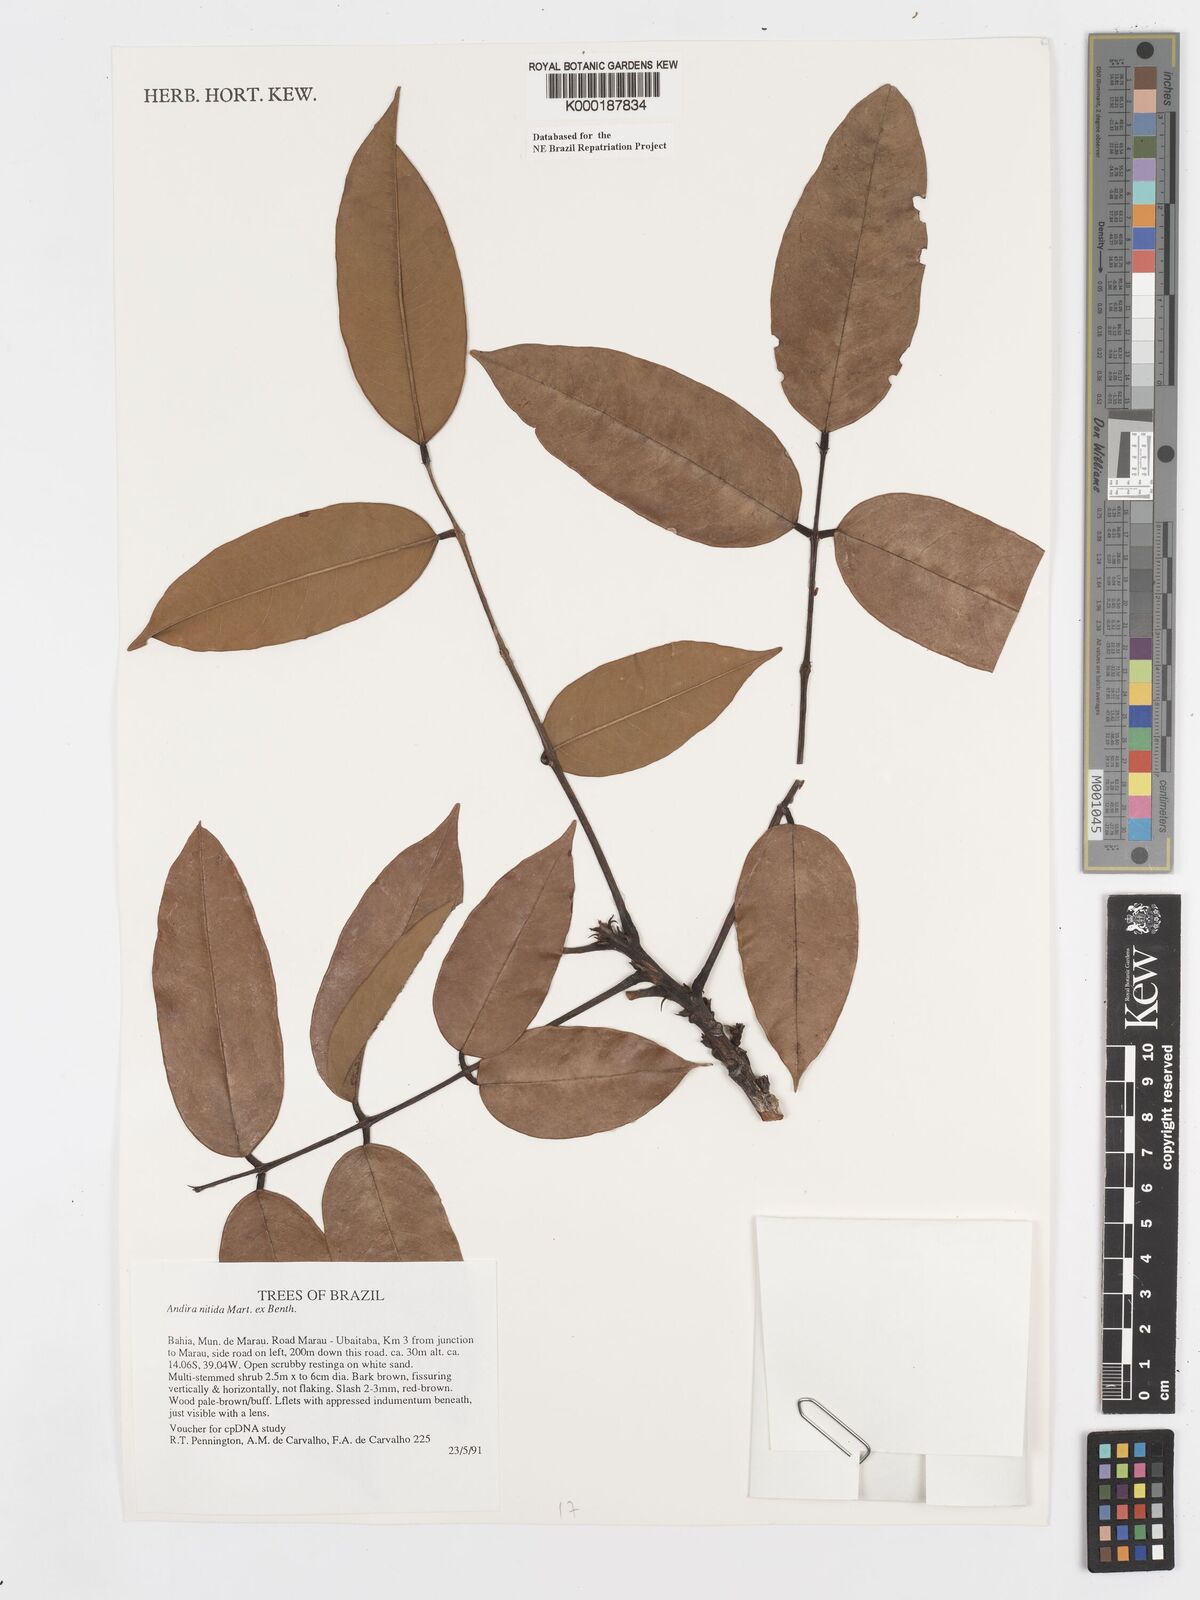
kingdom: Plantae
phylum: Tracheophyta
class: Magnoliopsida
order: Fabales
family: Fabaceae
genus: Andira
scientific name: Andira nitida
